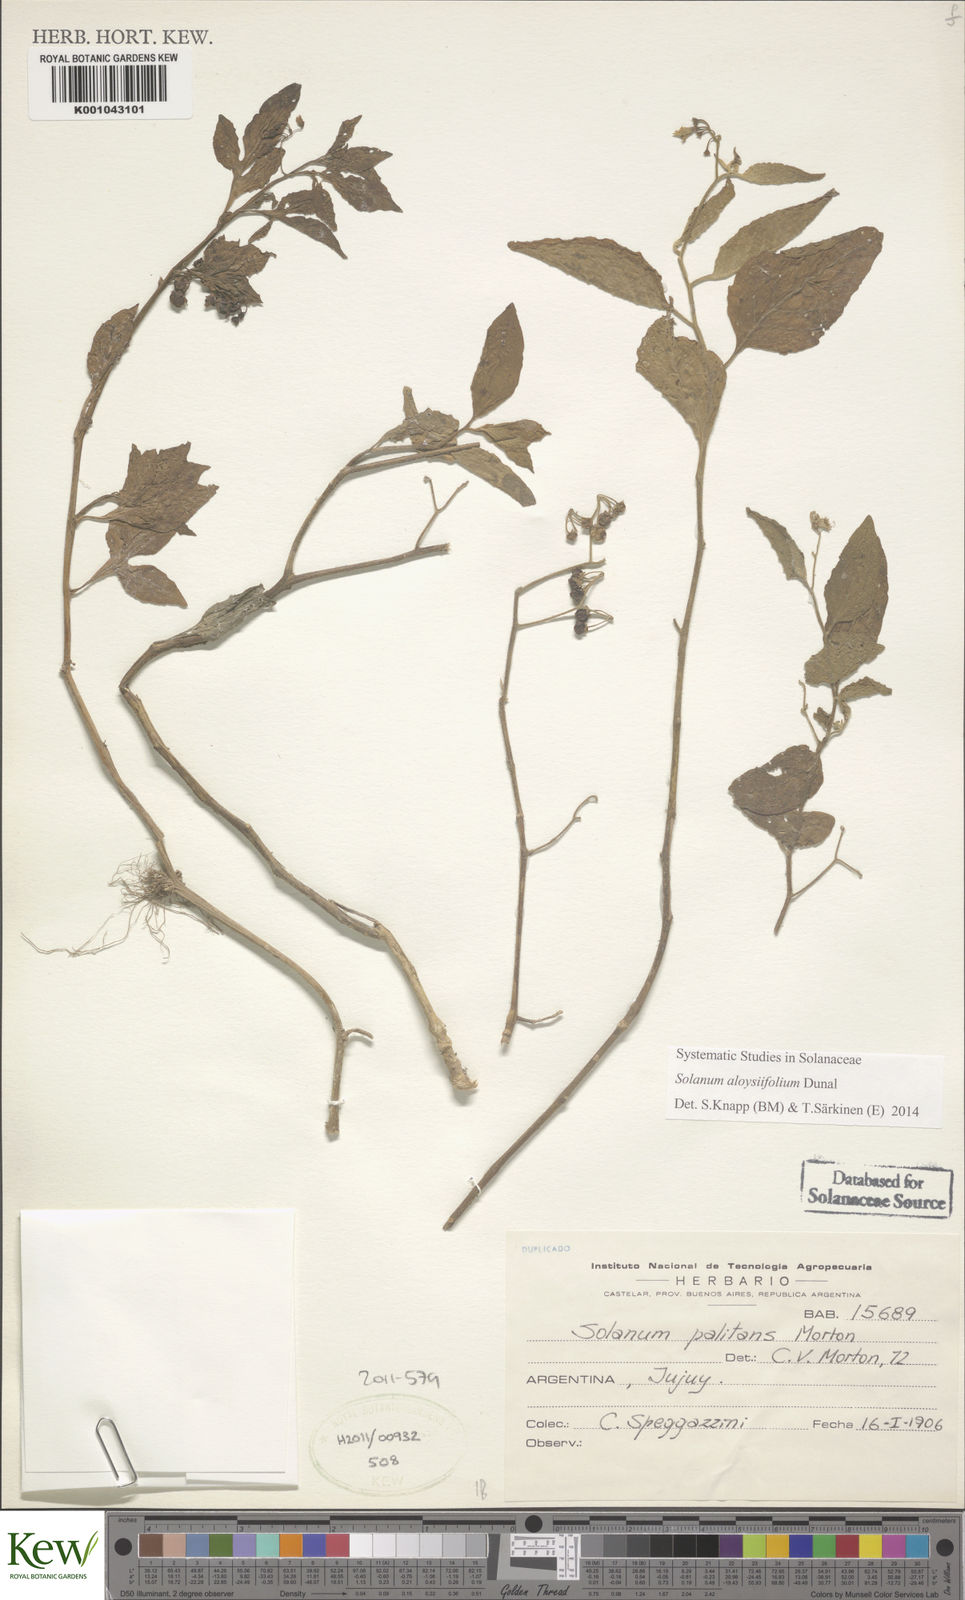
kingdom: Plantae
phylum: Tracheophyta
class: Magnoliopsida
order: Solanales
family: Solanaceae
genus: Solanum
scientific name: Solanum aloysiifolium
